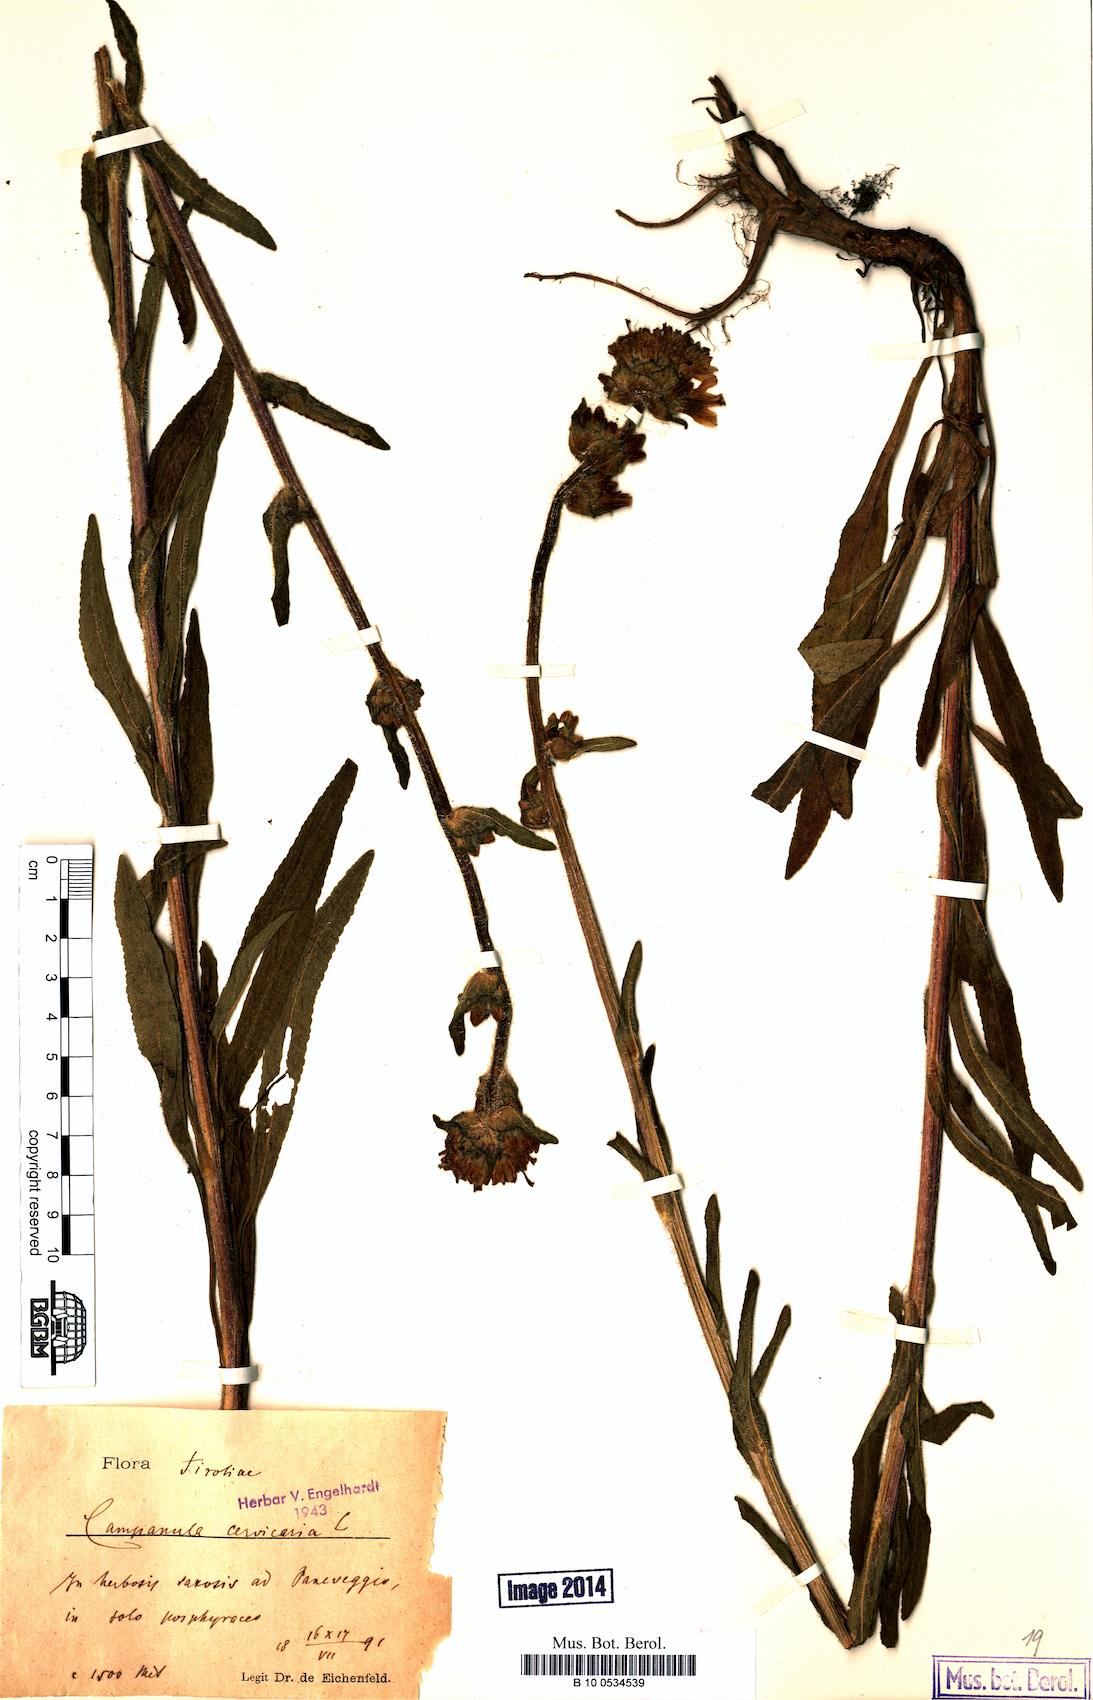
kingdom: Plantae
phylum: Tracheophyta
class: Magnoliopsida
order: Asterales
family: Campanulaceae
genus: Campanula
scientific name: Campanula cervicaria
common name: Bristly bellflower
